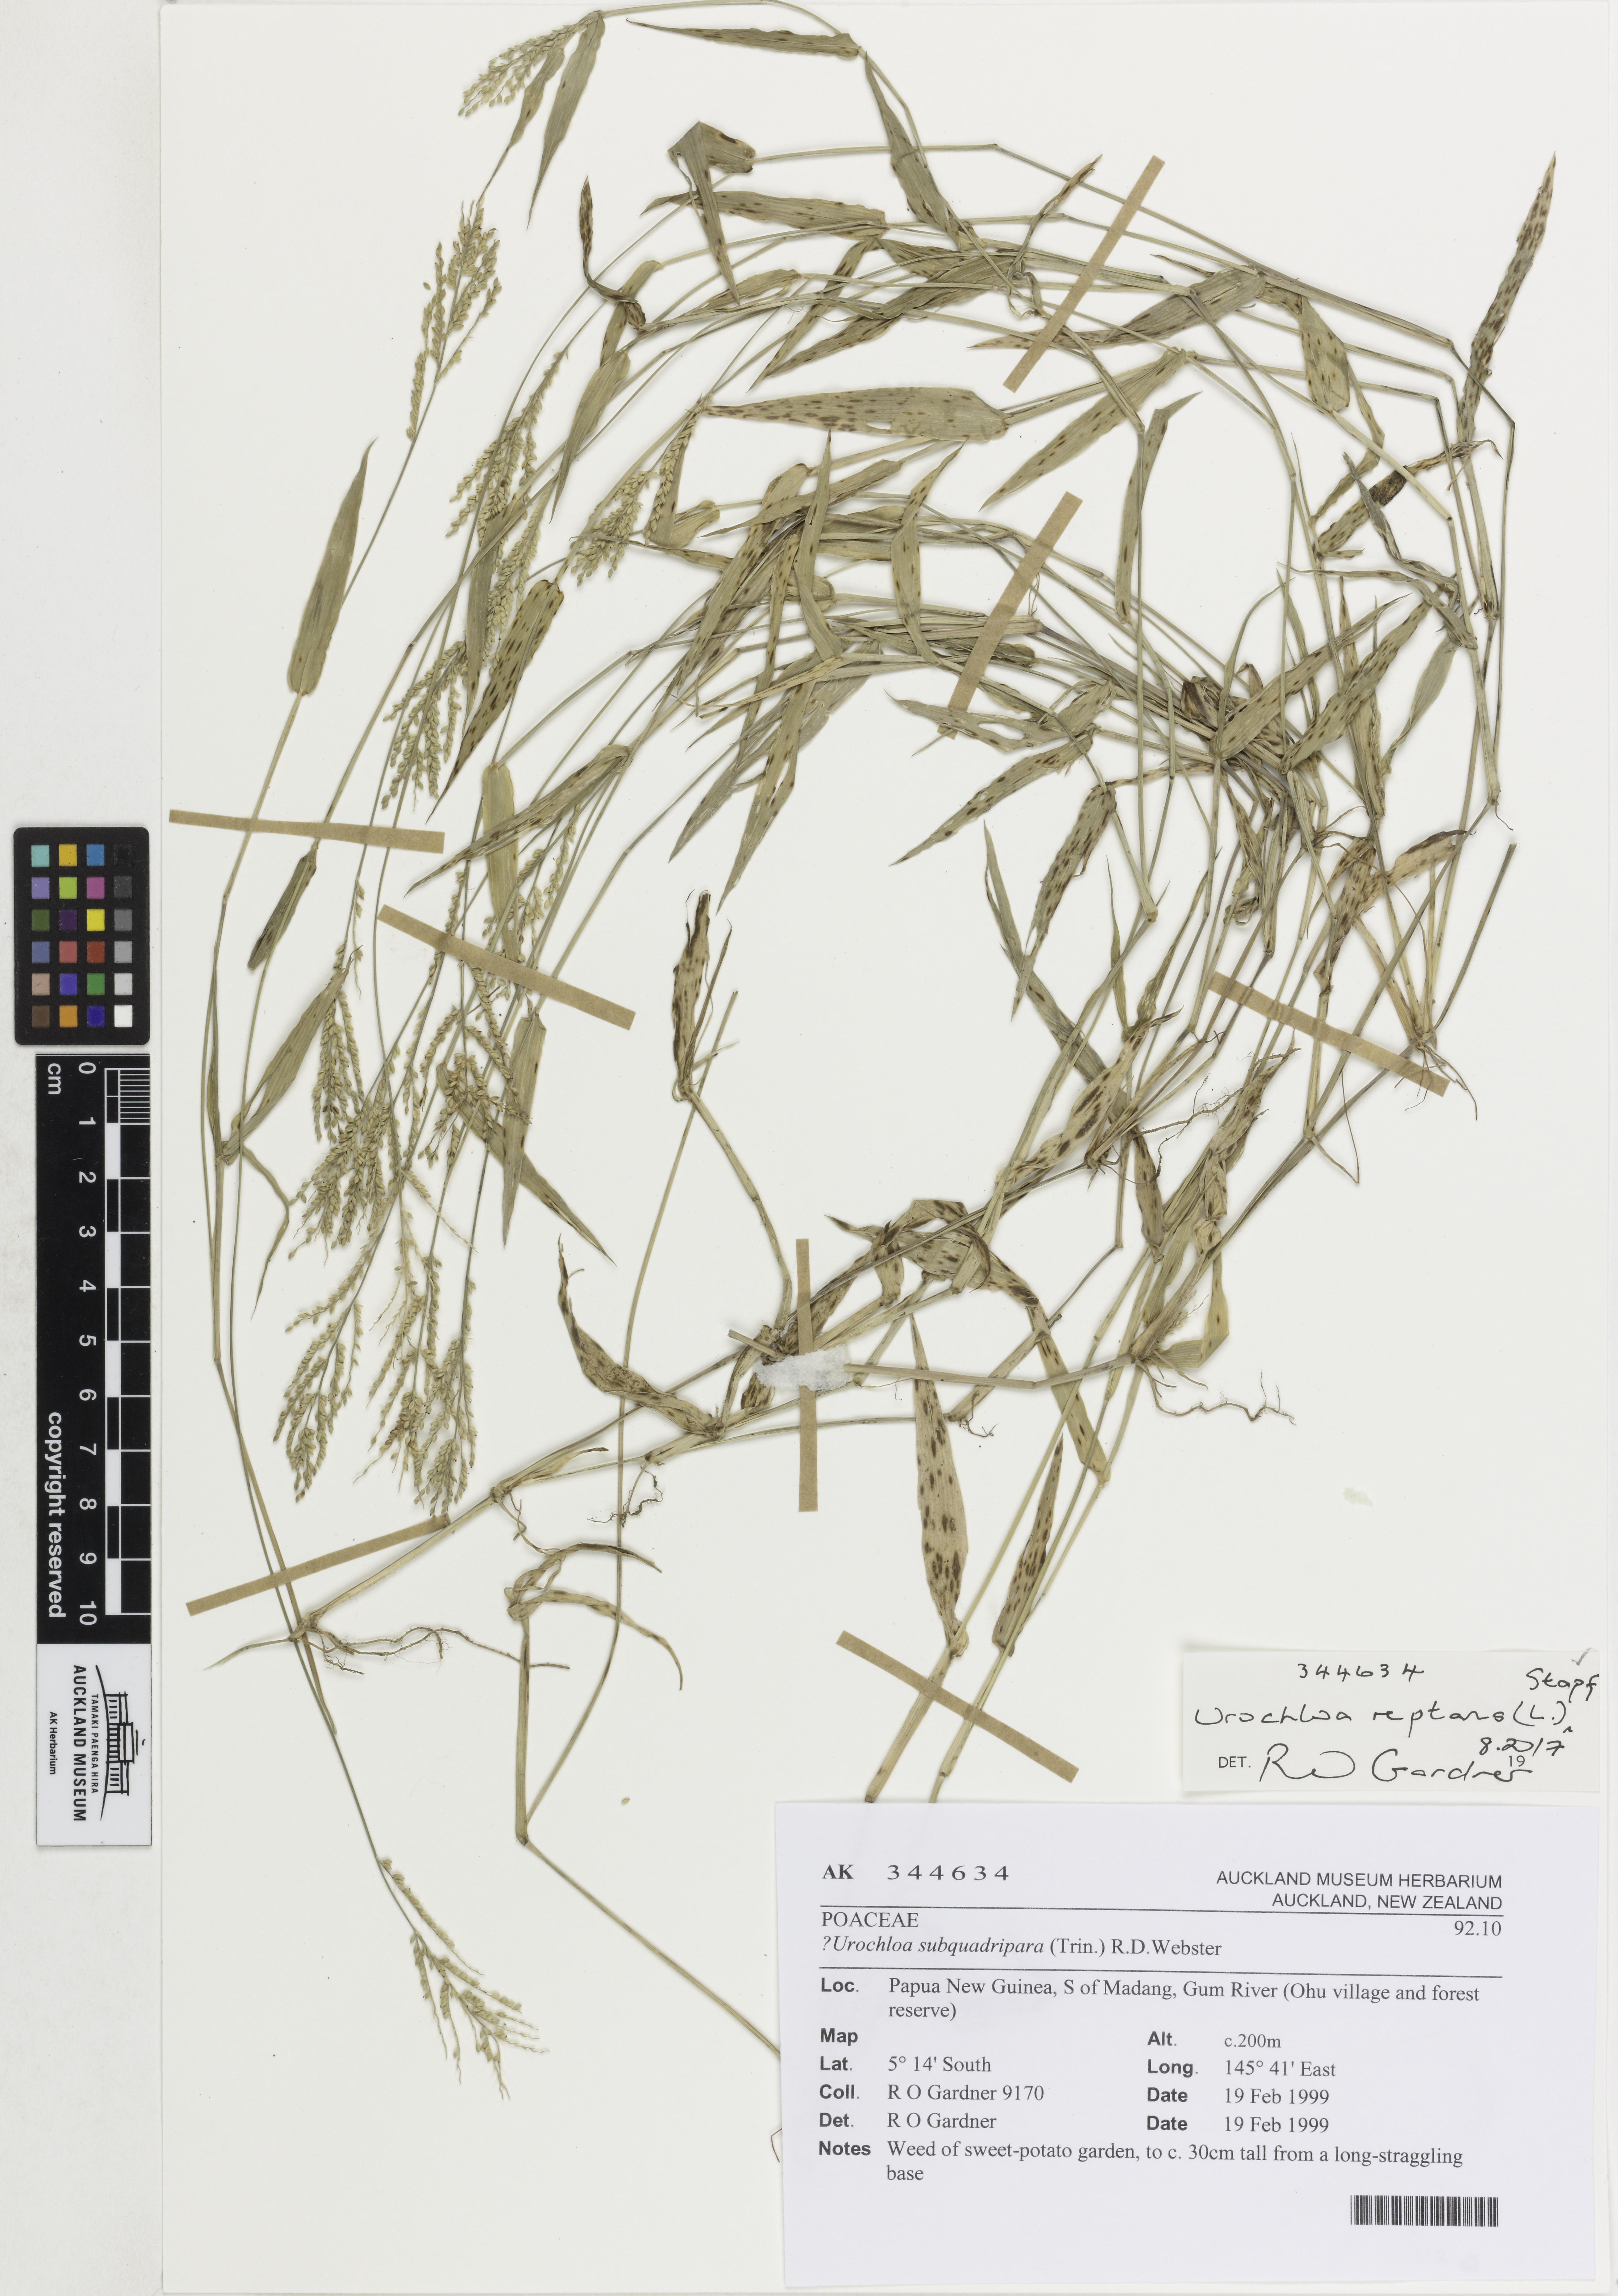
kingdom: Plantae
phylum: Tracheophyta
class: Liliopsida
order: Poales
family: Poaceae
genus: Urochloa
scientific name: Urochloa reptans
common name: Sprawling signalgrass
